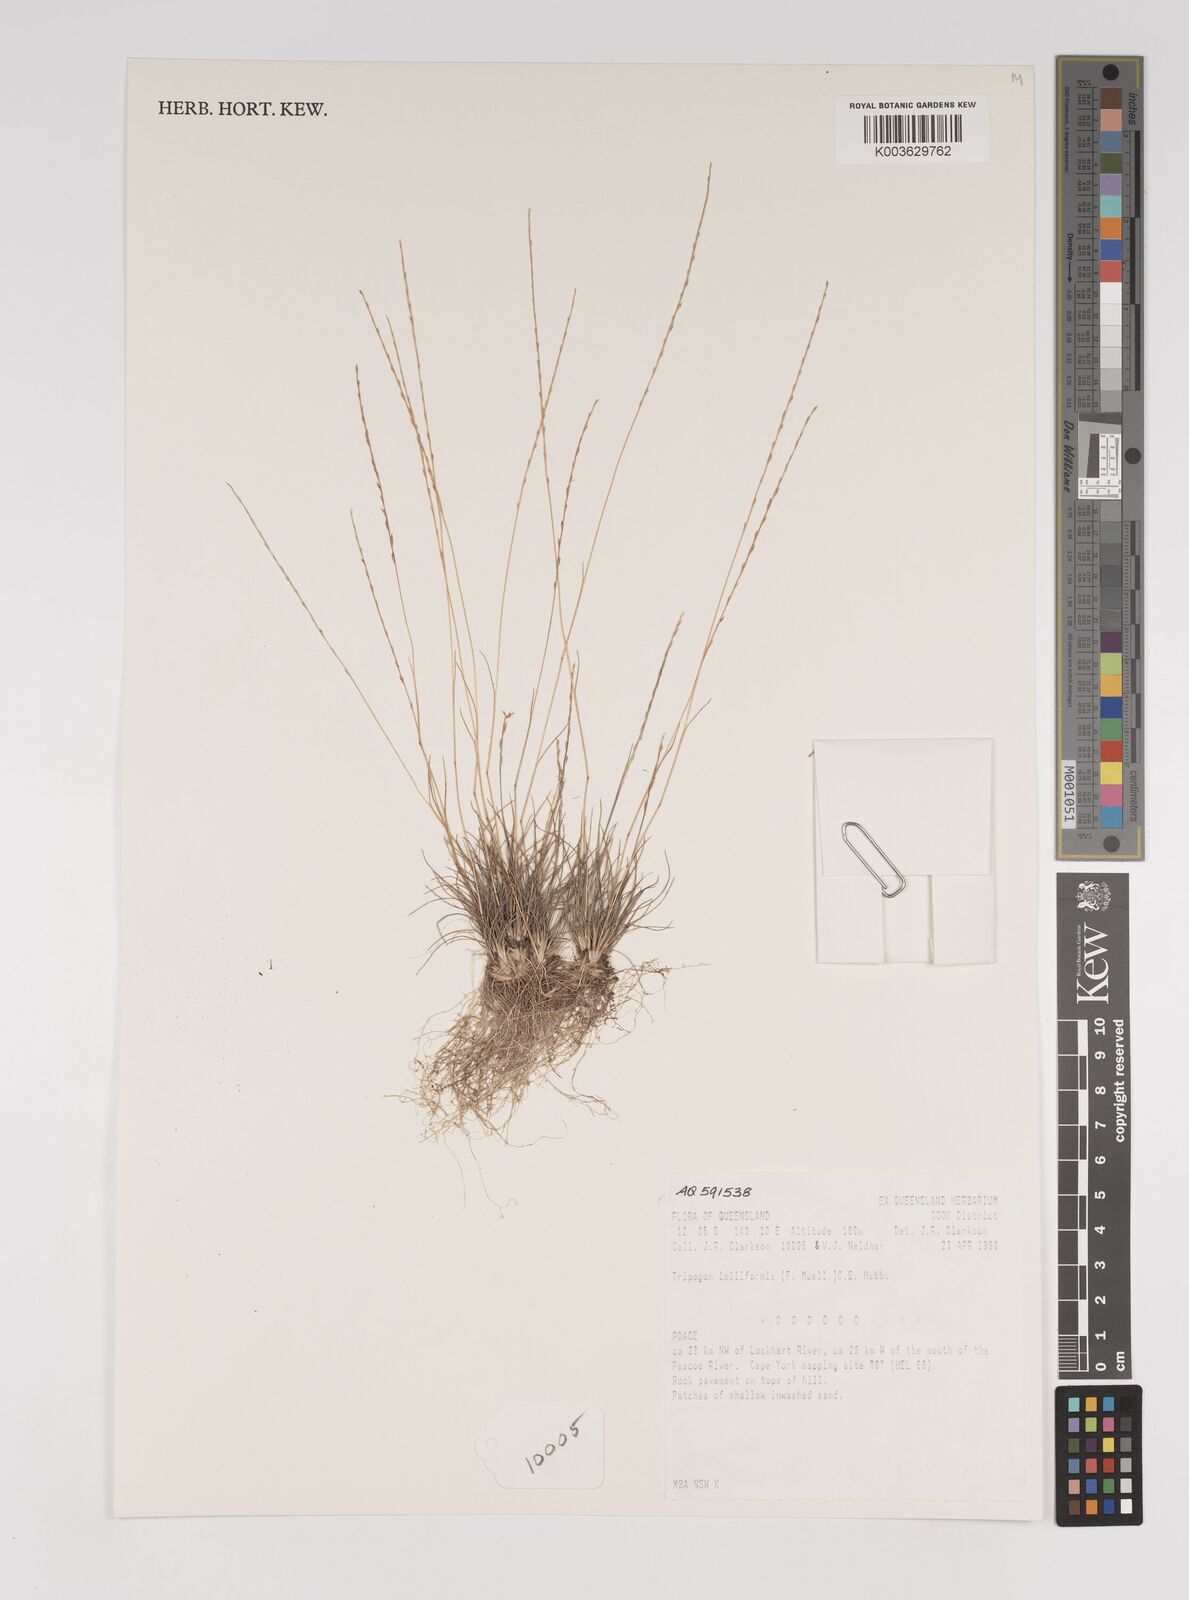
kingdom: Plantae
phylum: Tracheophyta
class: Liliopsida
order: Poales
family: Poaceae
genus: Tripogonella
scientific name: Tripogonella loliiformis
